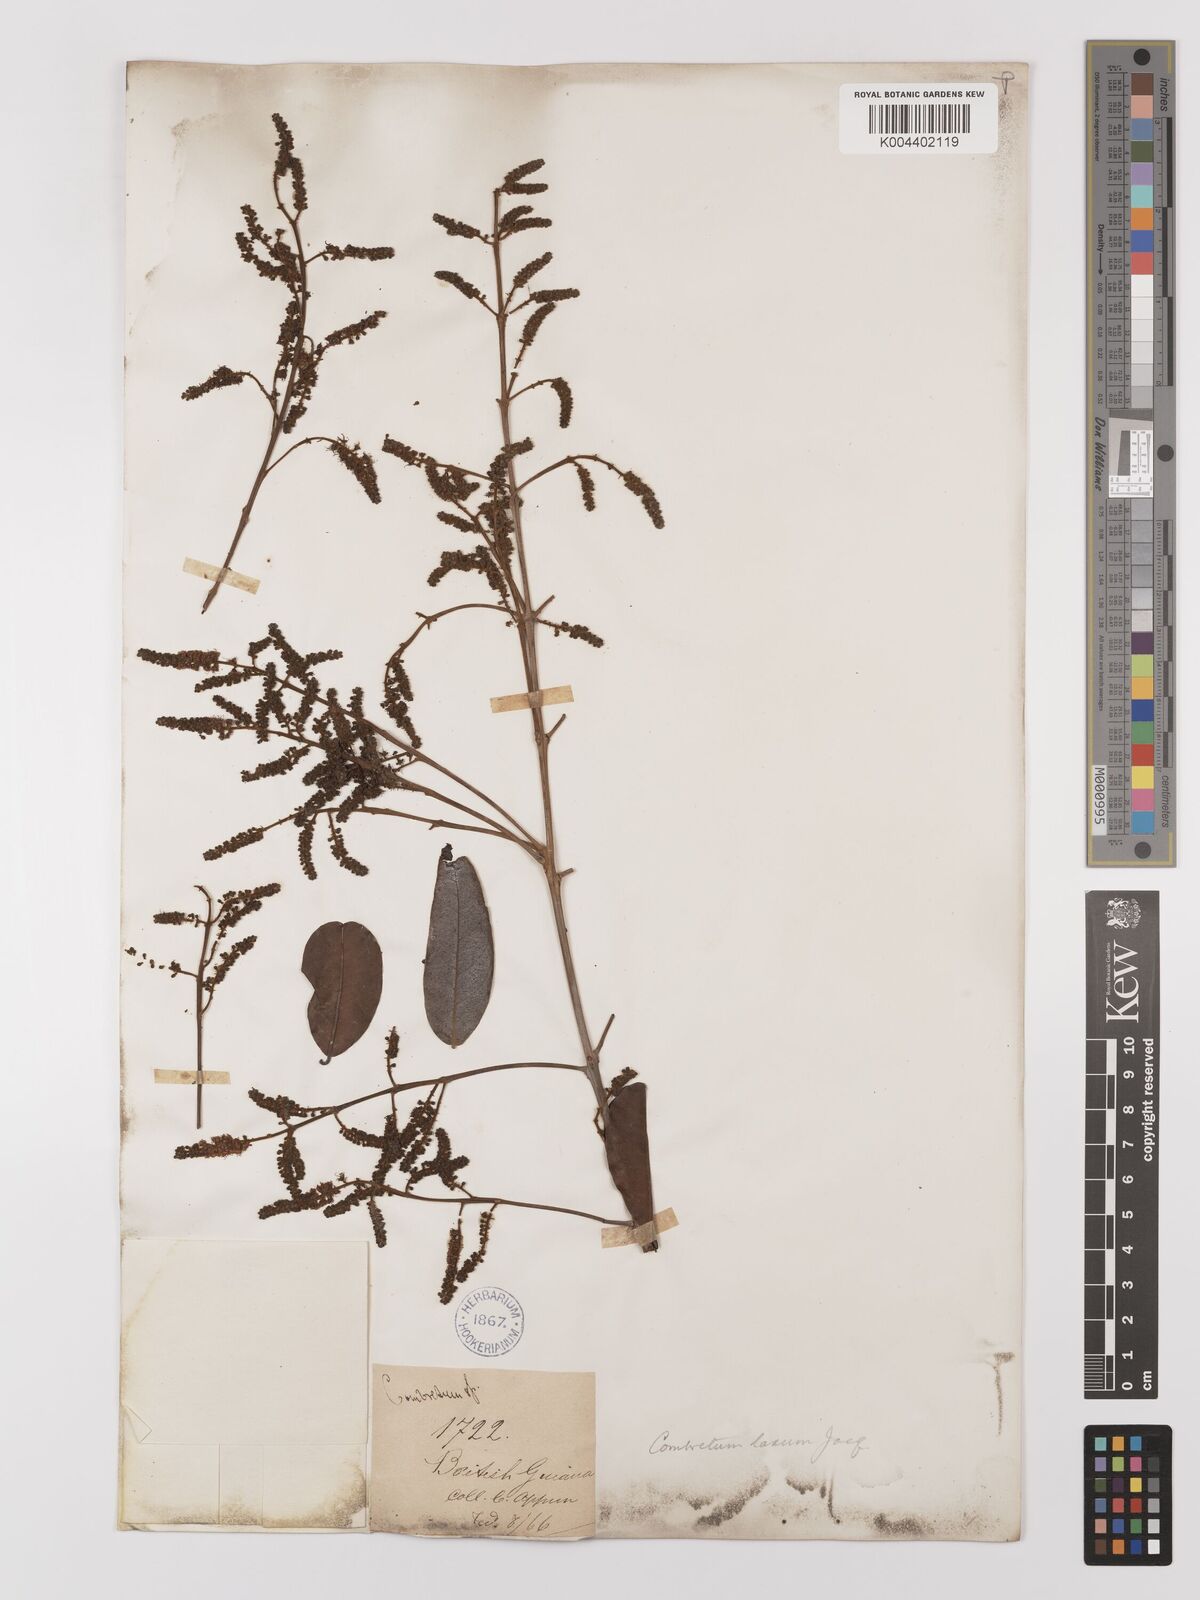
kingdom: Plantae
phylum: Tracheophyta
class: Magnoliopsida
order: Myrtales
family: Combretaceae
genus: Combretum
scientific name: Combretum
